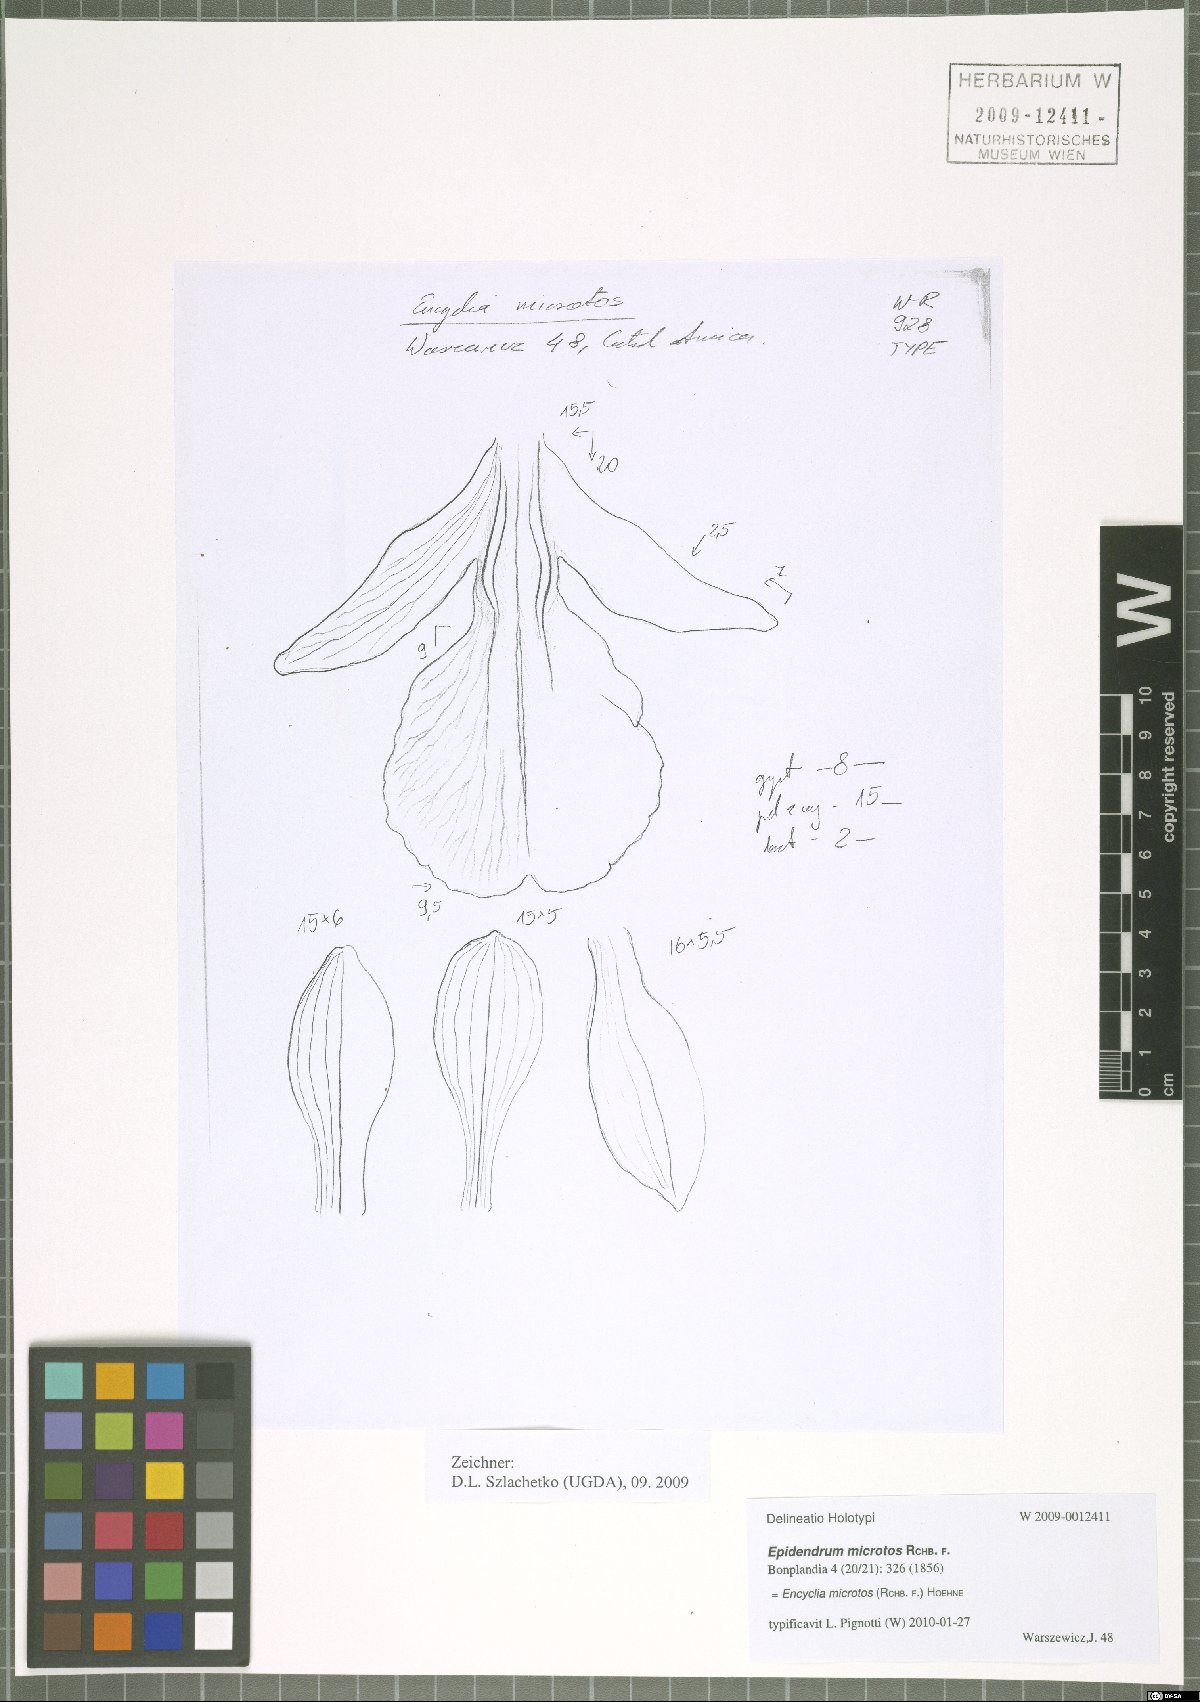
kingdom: Plantae
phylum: Tracheophyta
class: Liliopsida
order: Asparagales
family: Orchidaceae
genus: Encyclia
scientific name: Encyclia microtos
